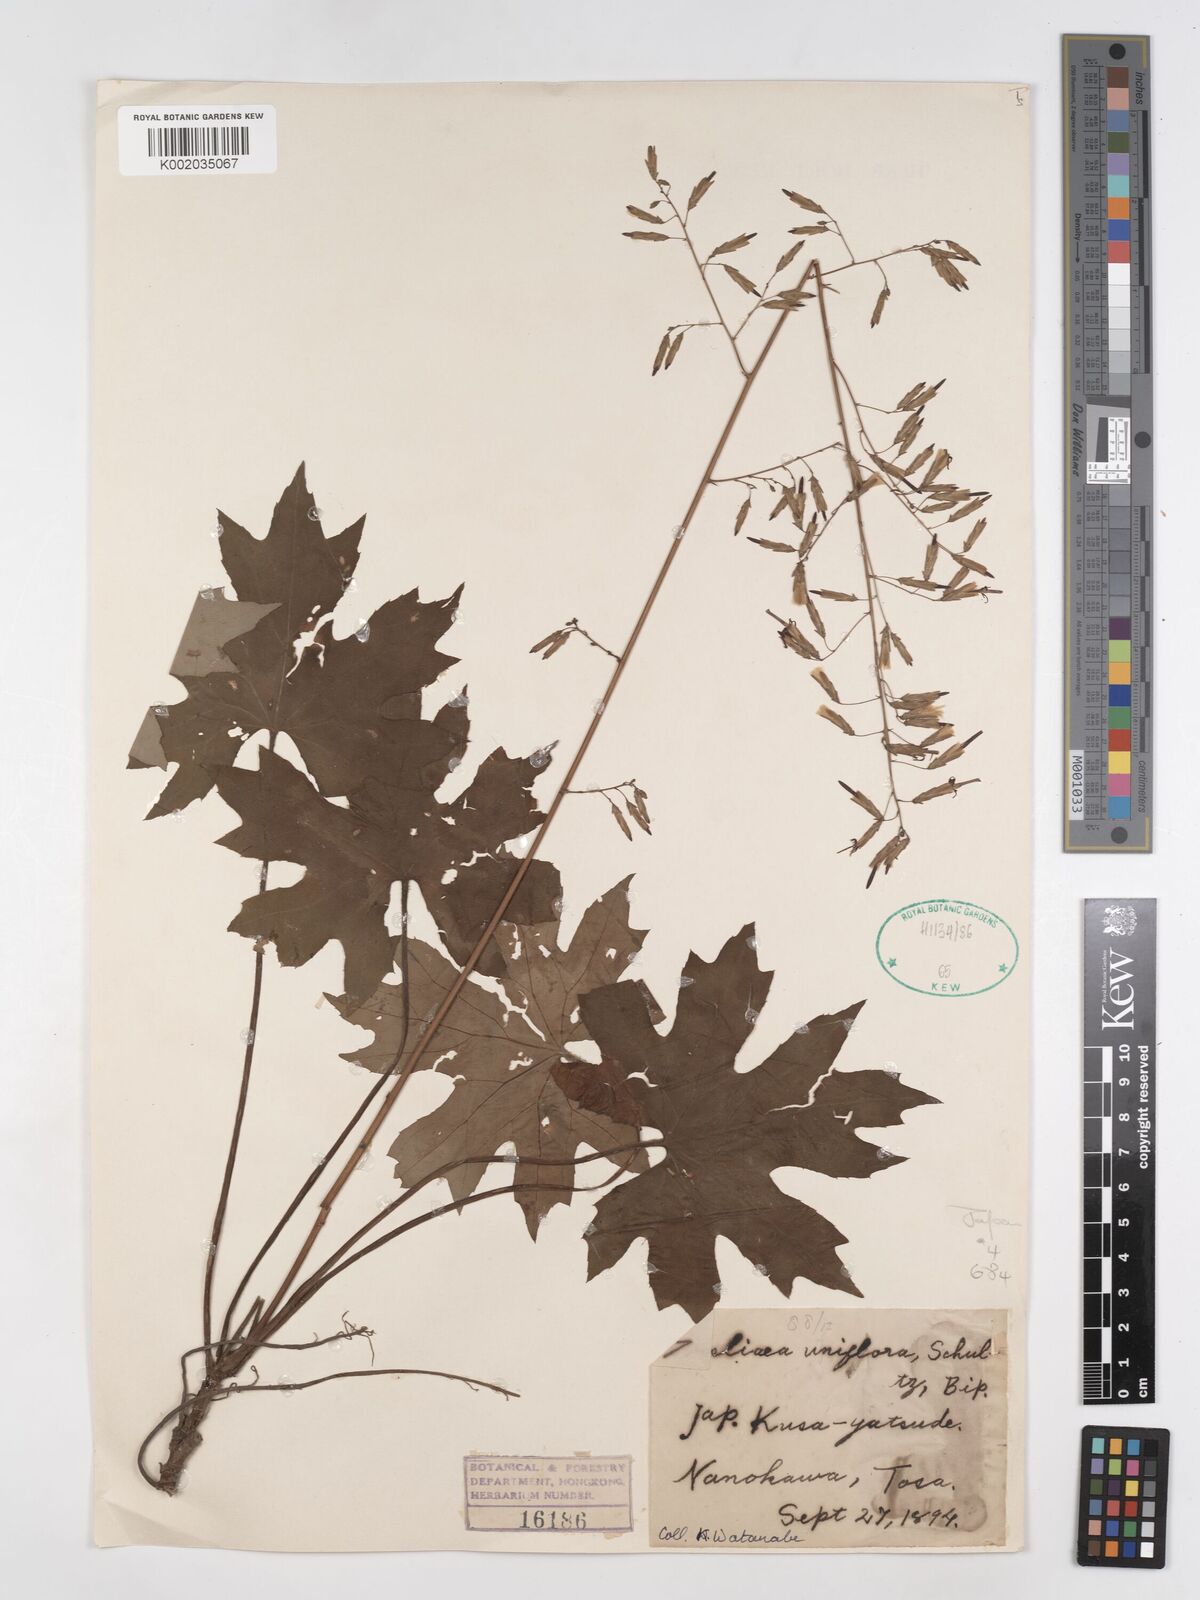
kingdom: Plantae
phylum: Tracheophyta
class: Magnoliopsida
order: Asterales
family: Asteraceae
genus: Ainsliaea
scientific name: Ainsliaea uniflora
